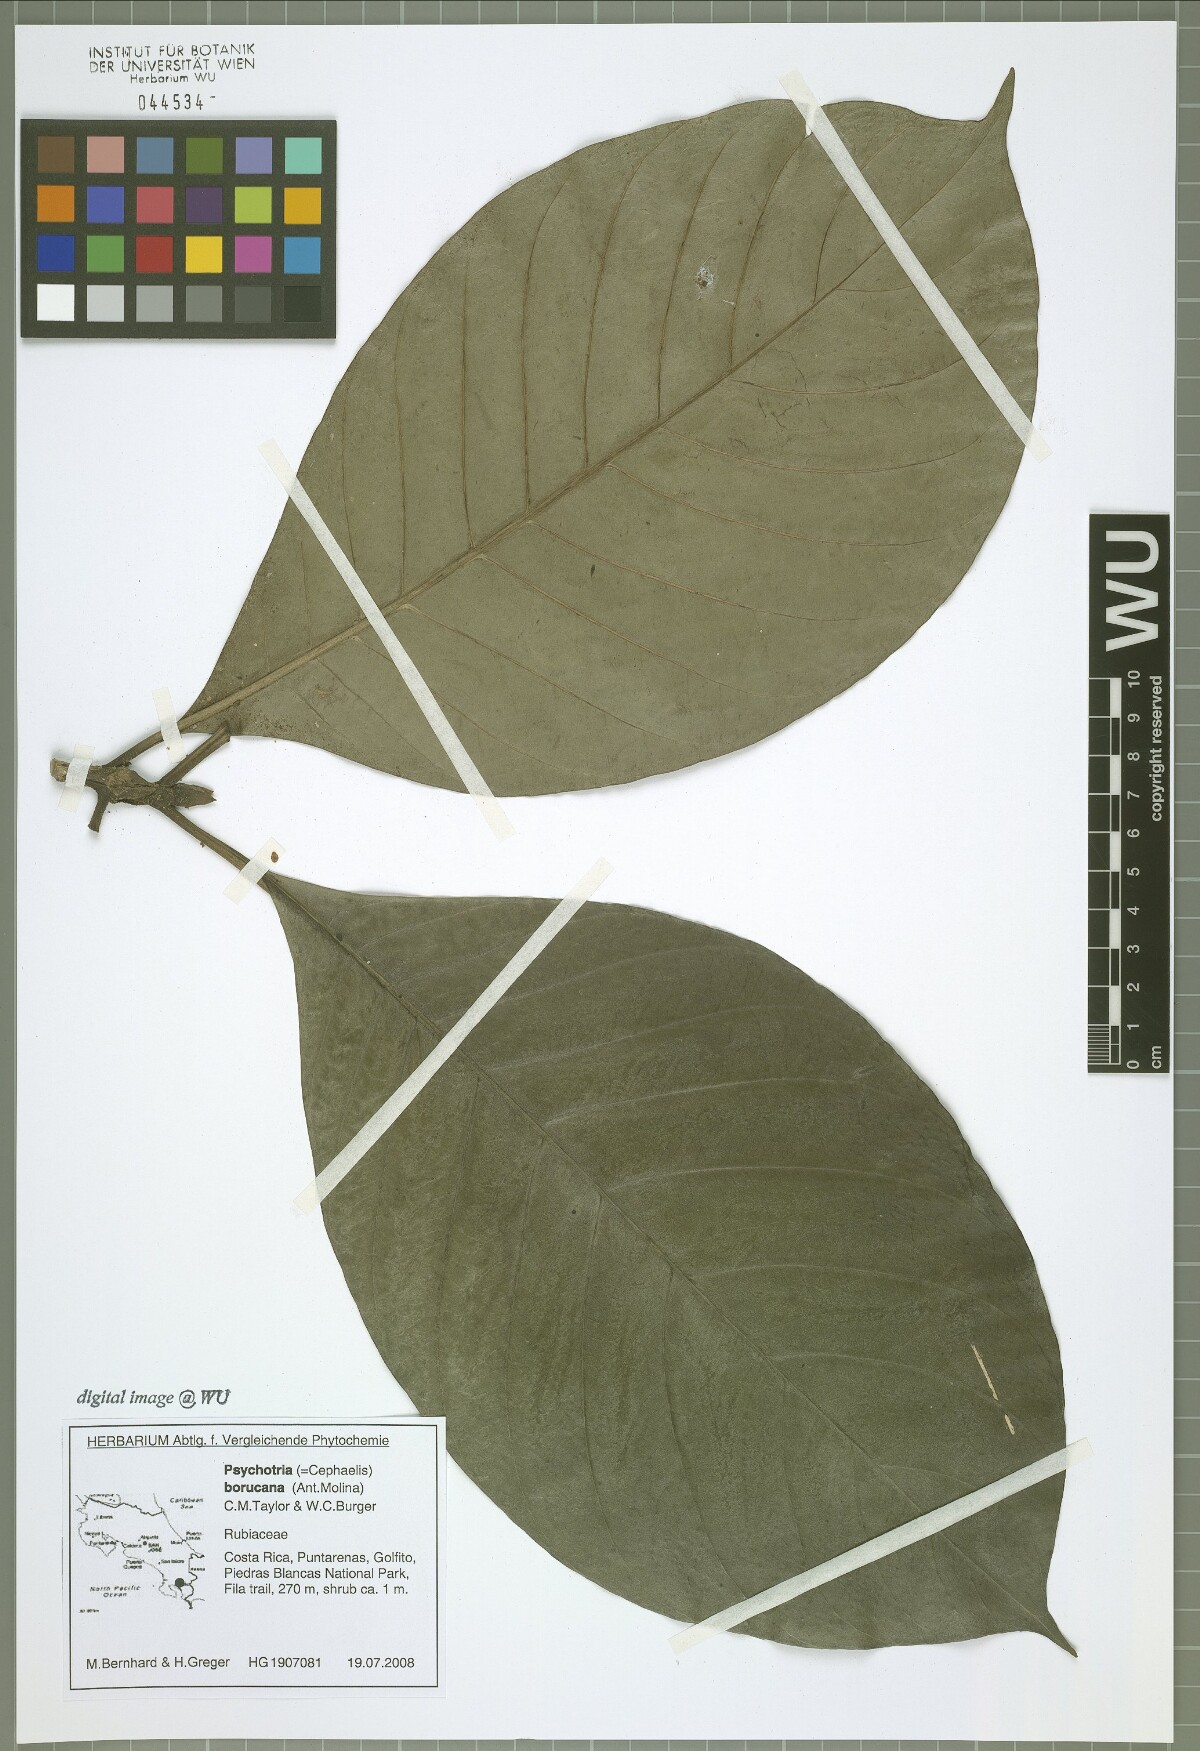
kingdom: Plantae
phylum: Tracheophyta
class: Magnoliopsida
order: Gentianales
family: Rubiaceae
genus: Carapichea
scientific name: Carapichea affinis
